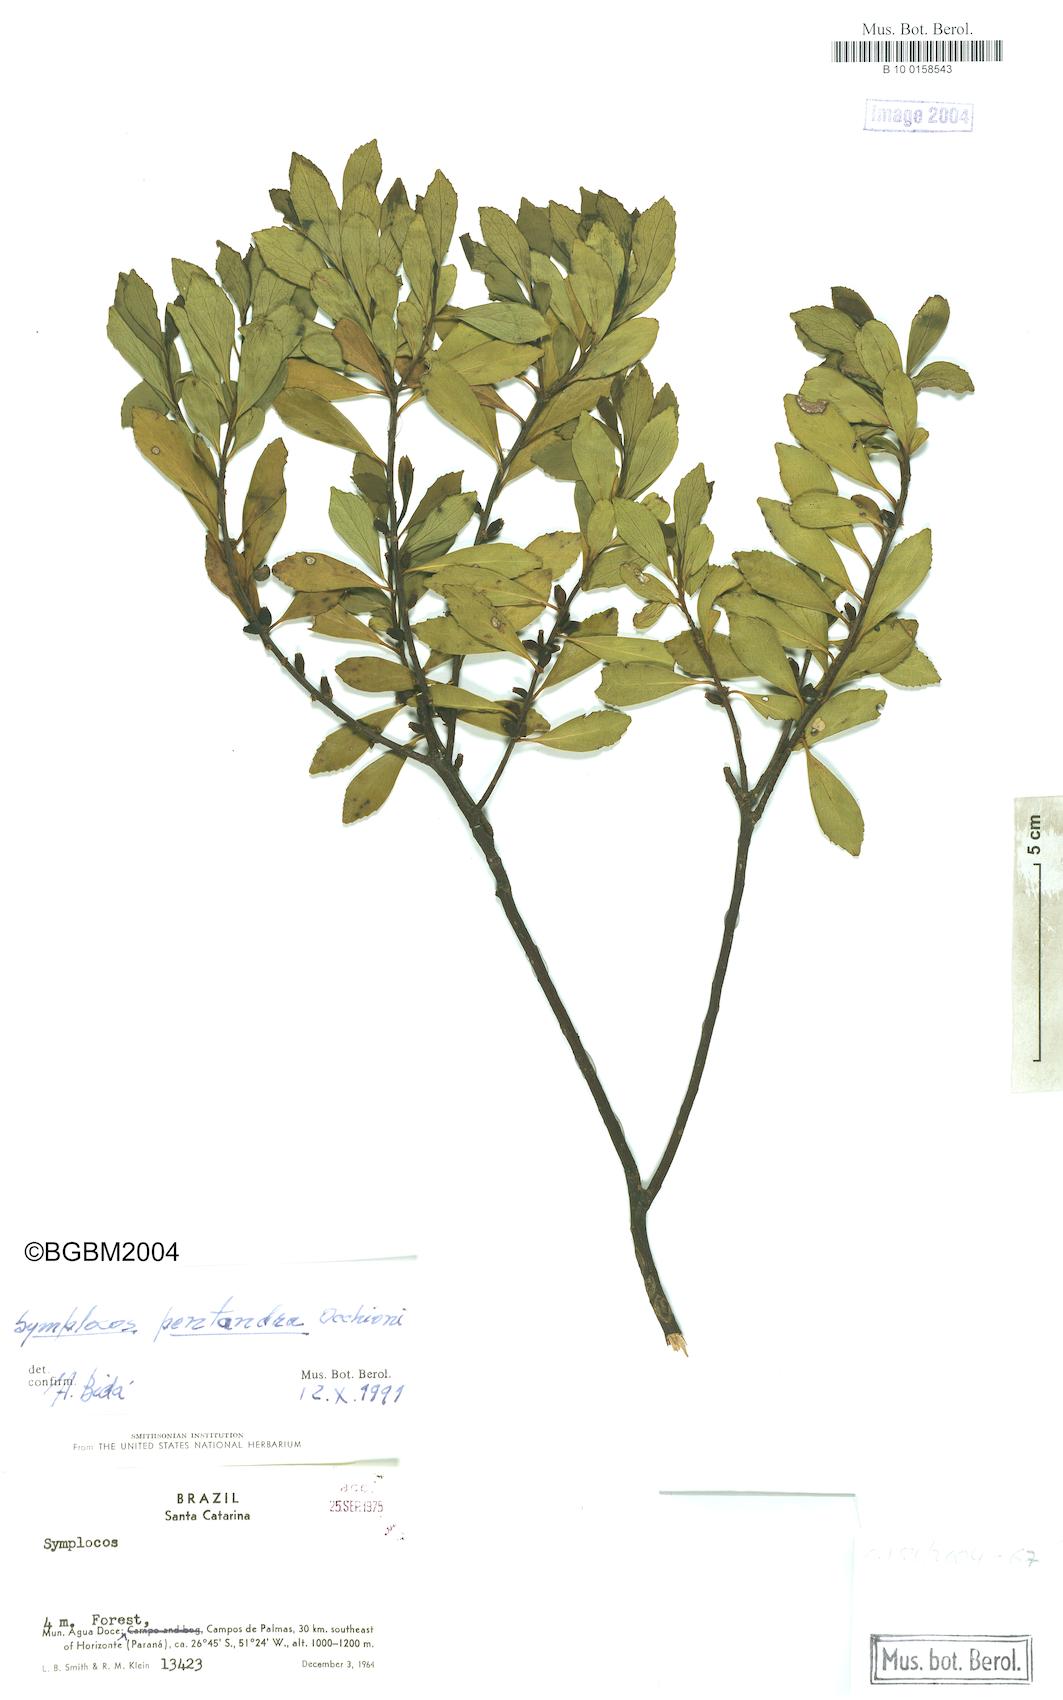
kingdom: Plantae
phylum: Tracheophyta
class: Magnoliopsida
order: Ericales
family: Symplocaceae
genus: Symplocos
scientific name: Symplocos pentandra
